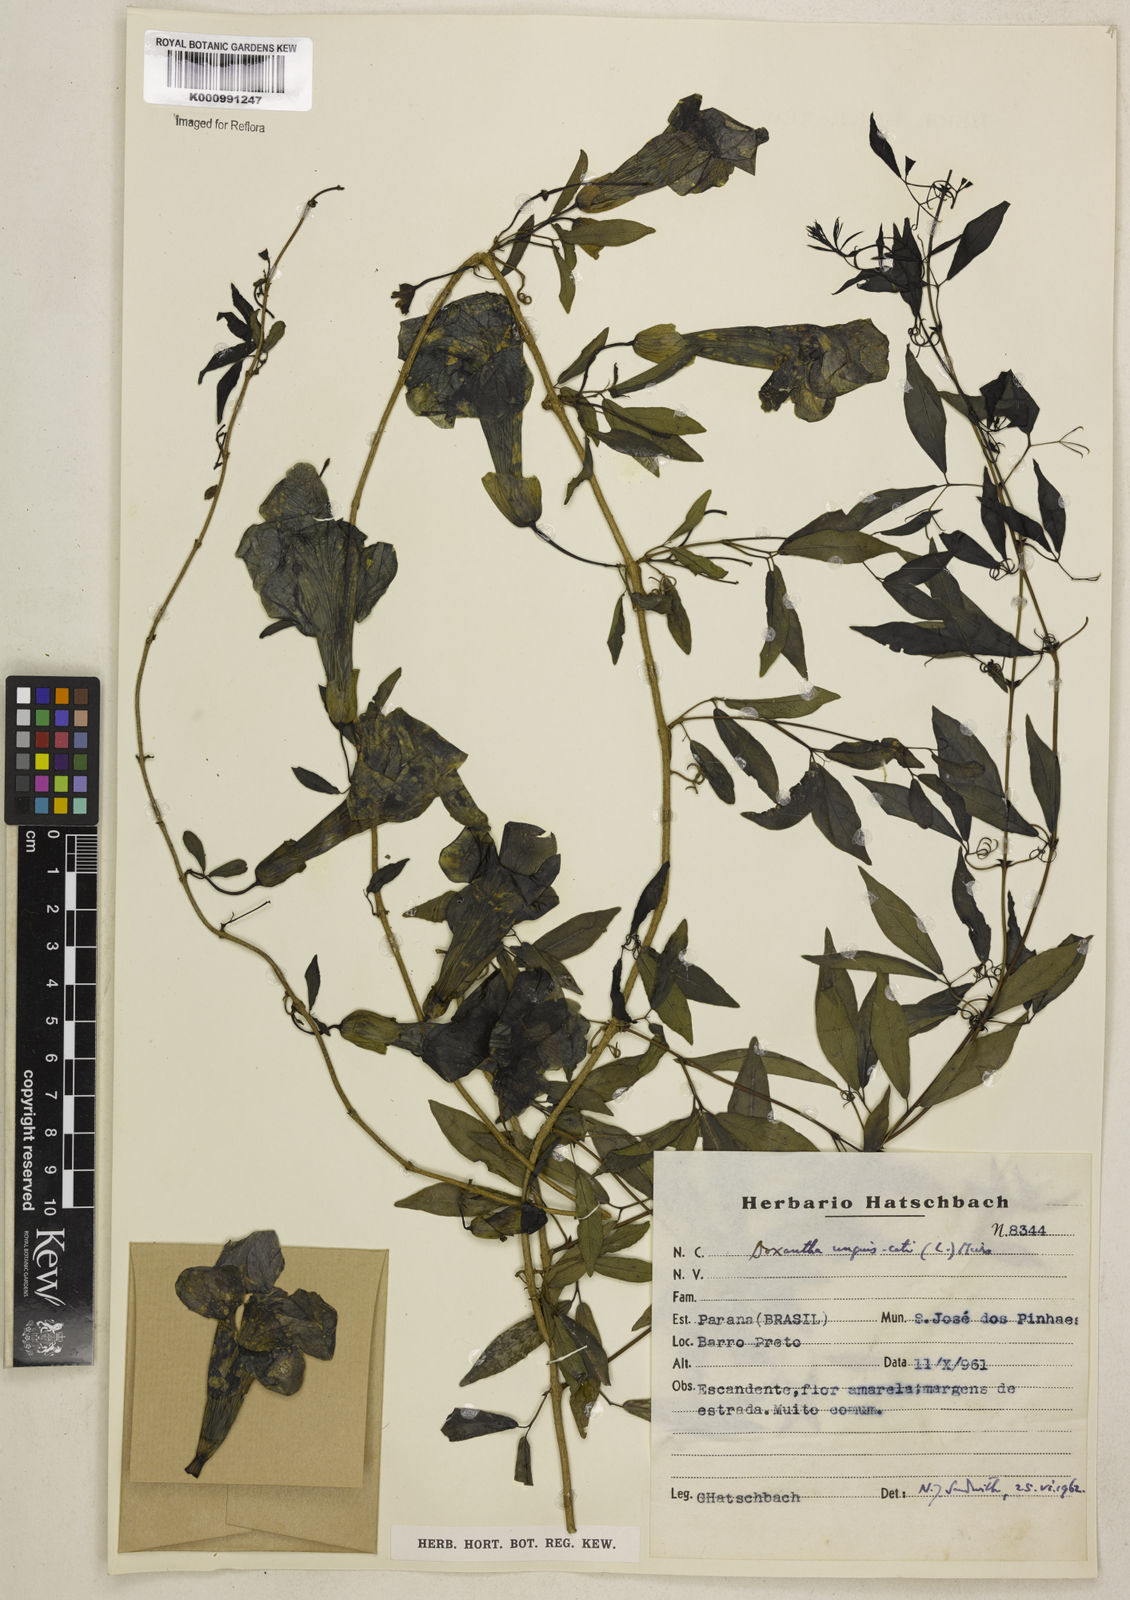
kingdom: Plantae
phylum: Tracheophyta
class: Magnoliopsida
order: Lamiales
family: Bignoniaceae
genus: Dolichandra
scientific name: Dolichandra unguis-cati
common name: Catclaw vine
